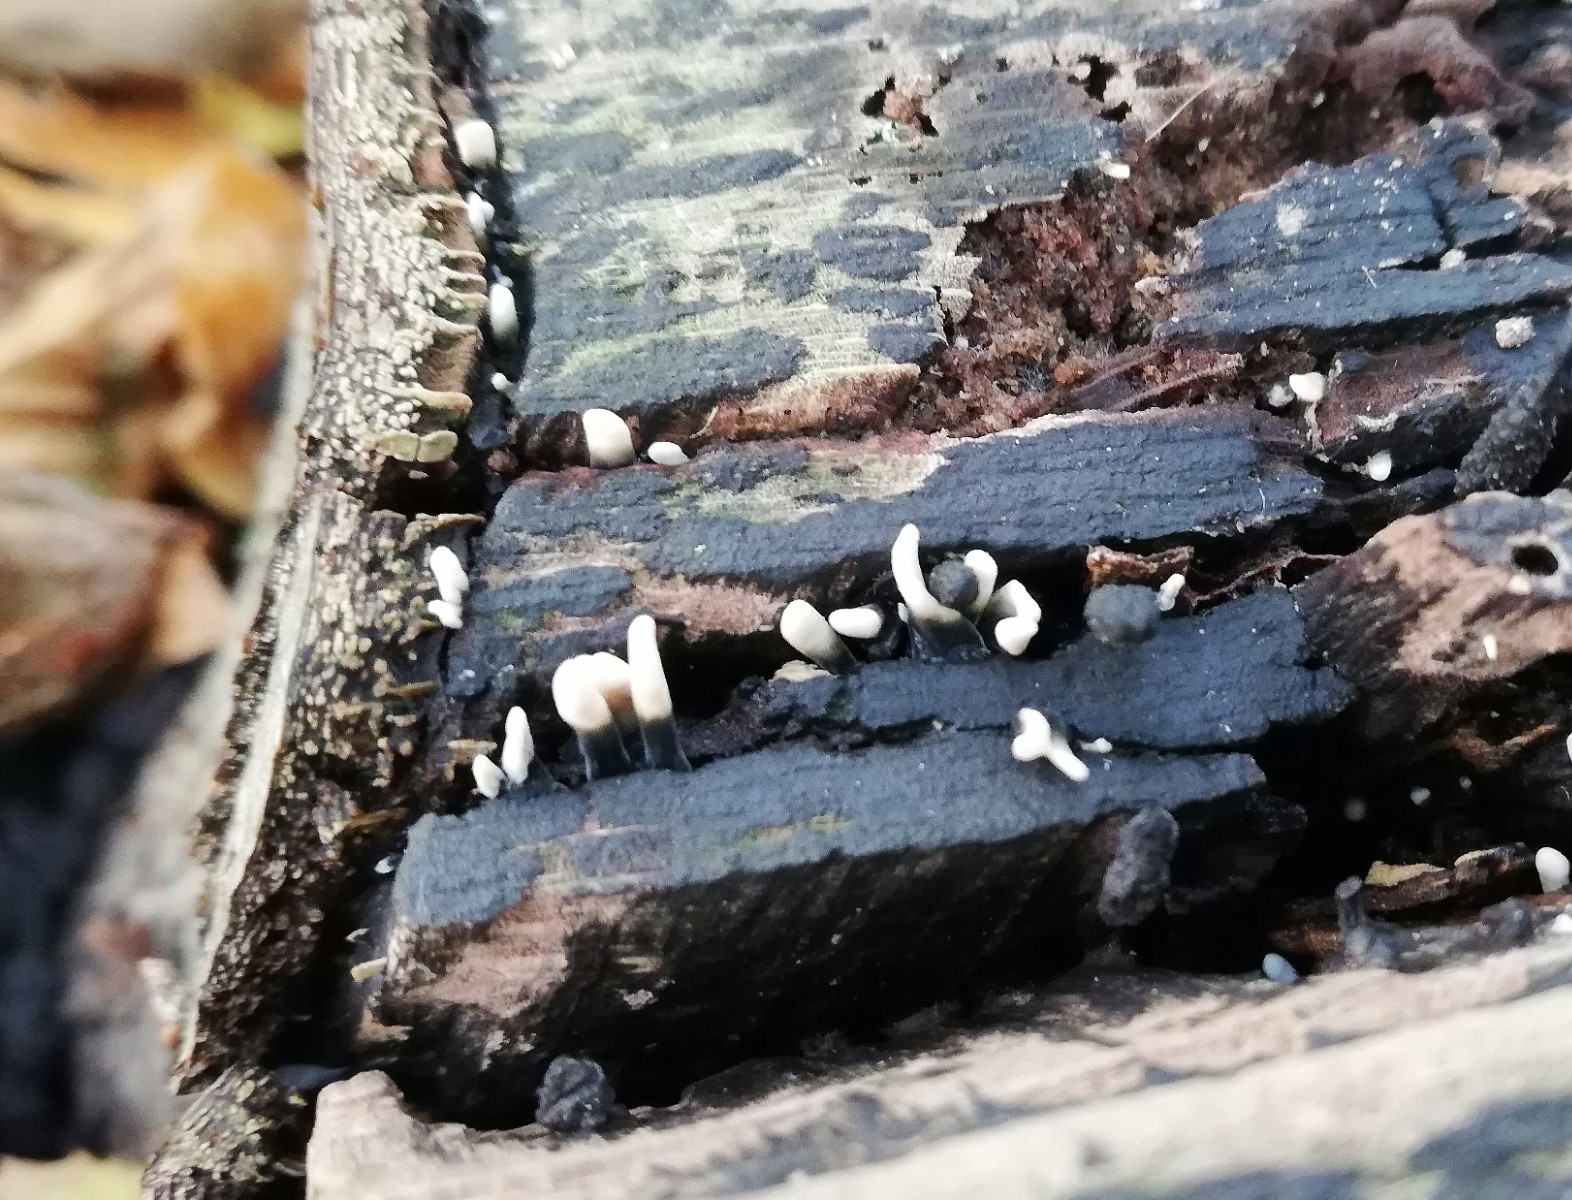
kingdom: Fungi
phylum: Ascomycota
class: Sordariomycetes
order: Xylariales
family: Xylariaceae
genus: Xylaria
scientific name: Xylaria hypoxylon
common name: grenet stødsvamp
